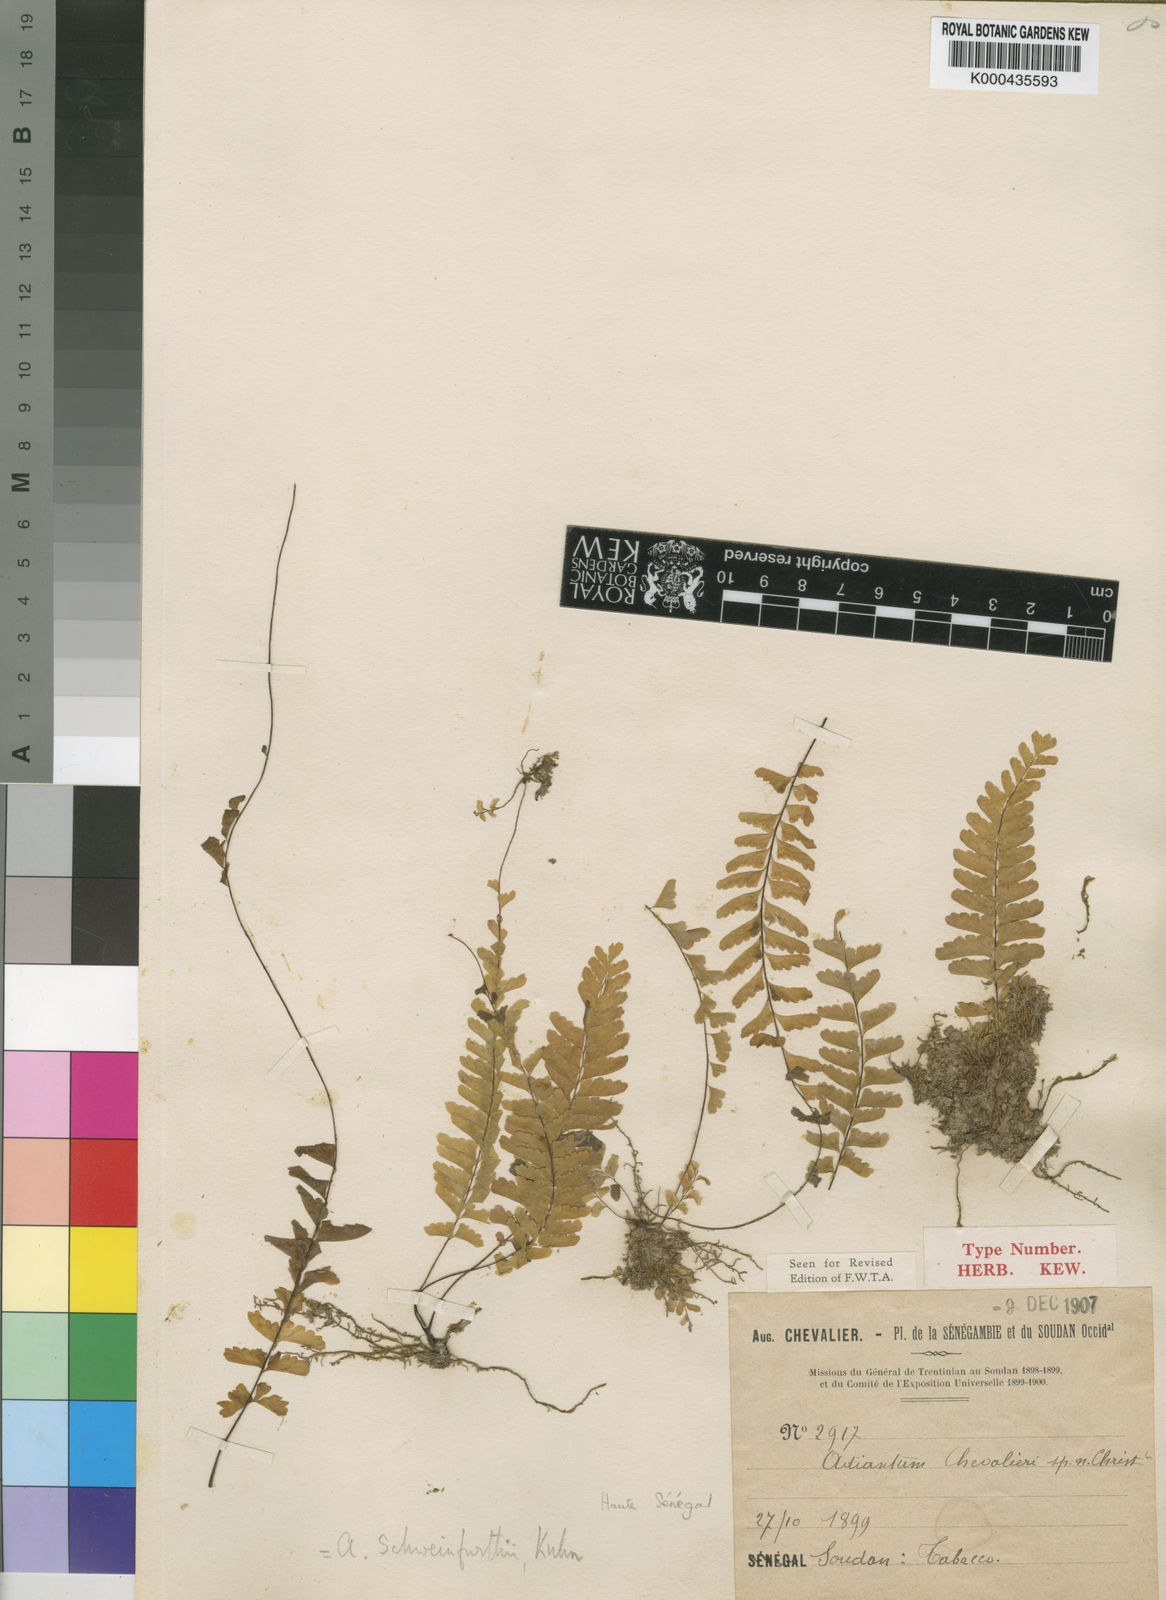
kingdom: Plantae
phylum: Tracheophyta
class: Polypodiopsida
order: Polypodiales
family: Pteridaceae
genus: Adiantum
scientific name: Adiantum schweinfurthii
